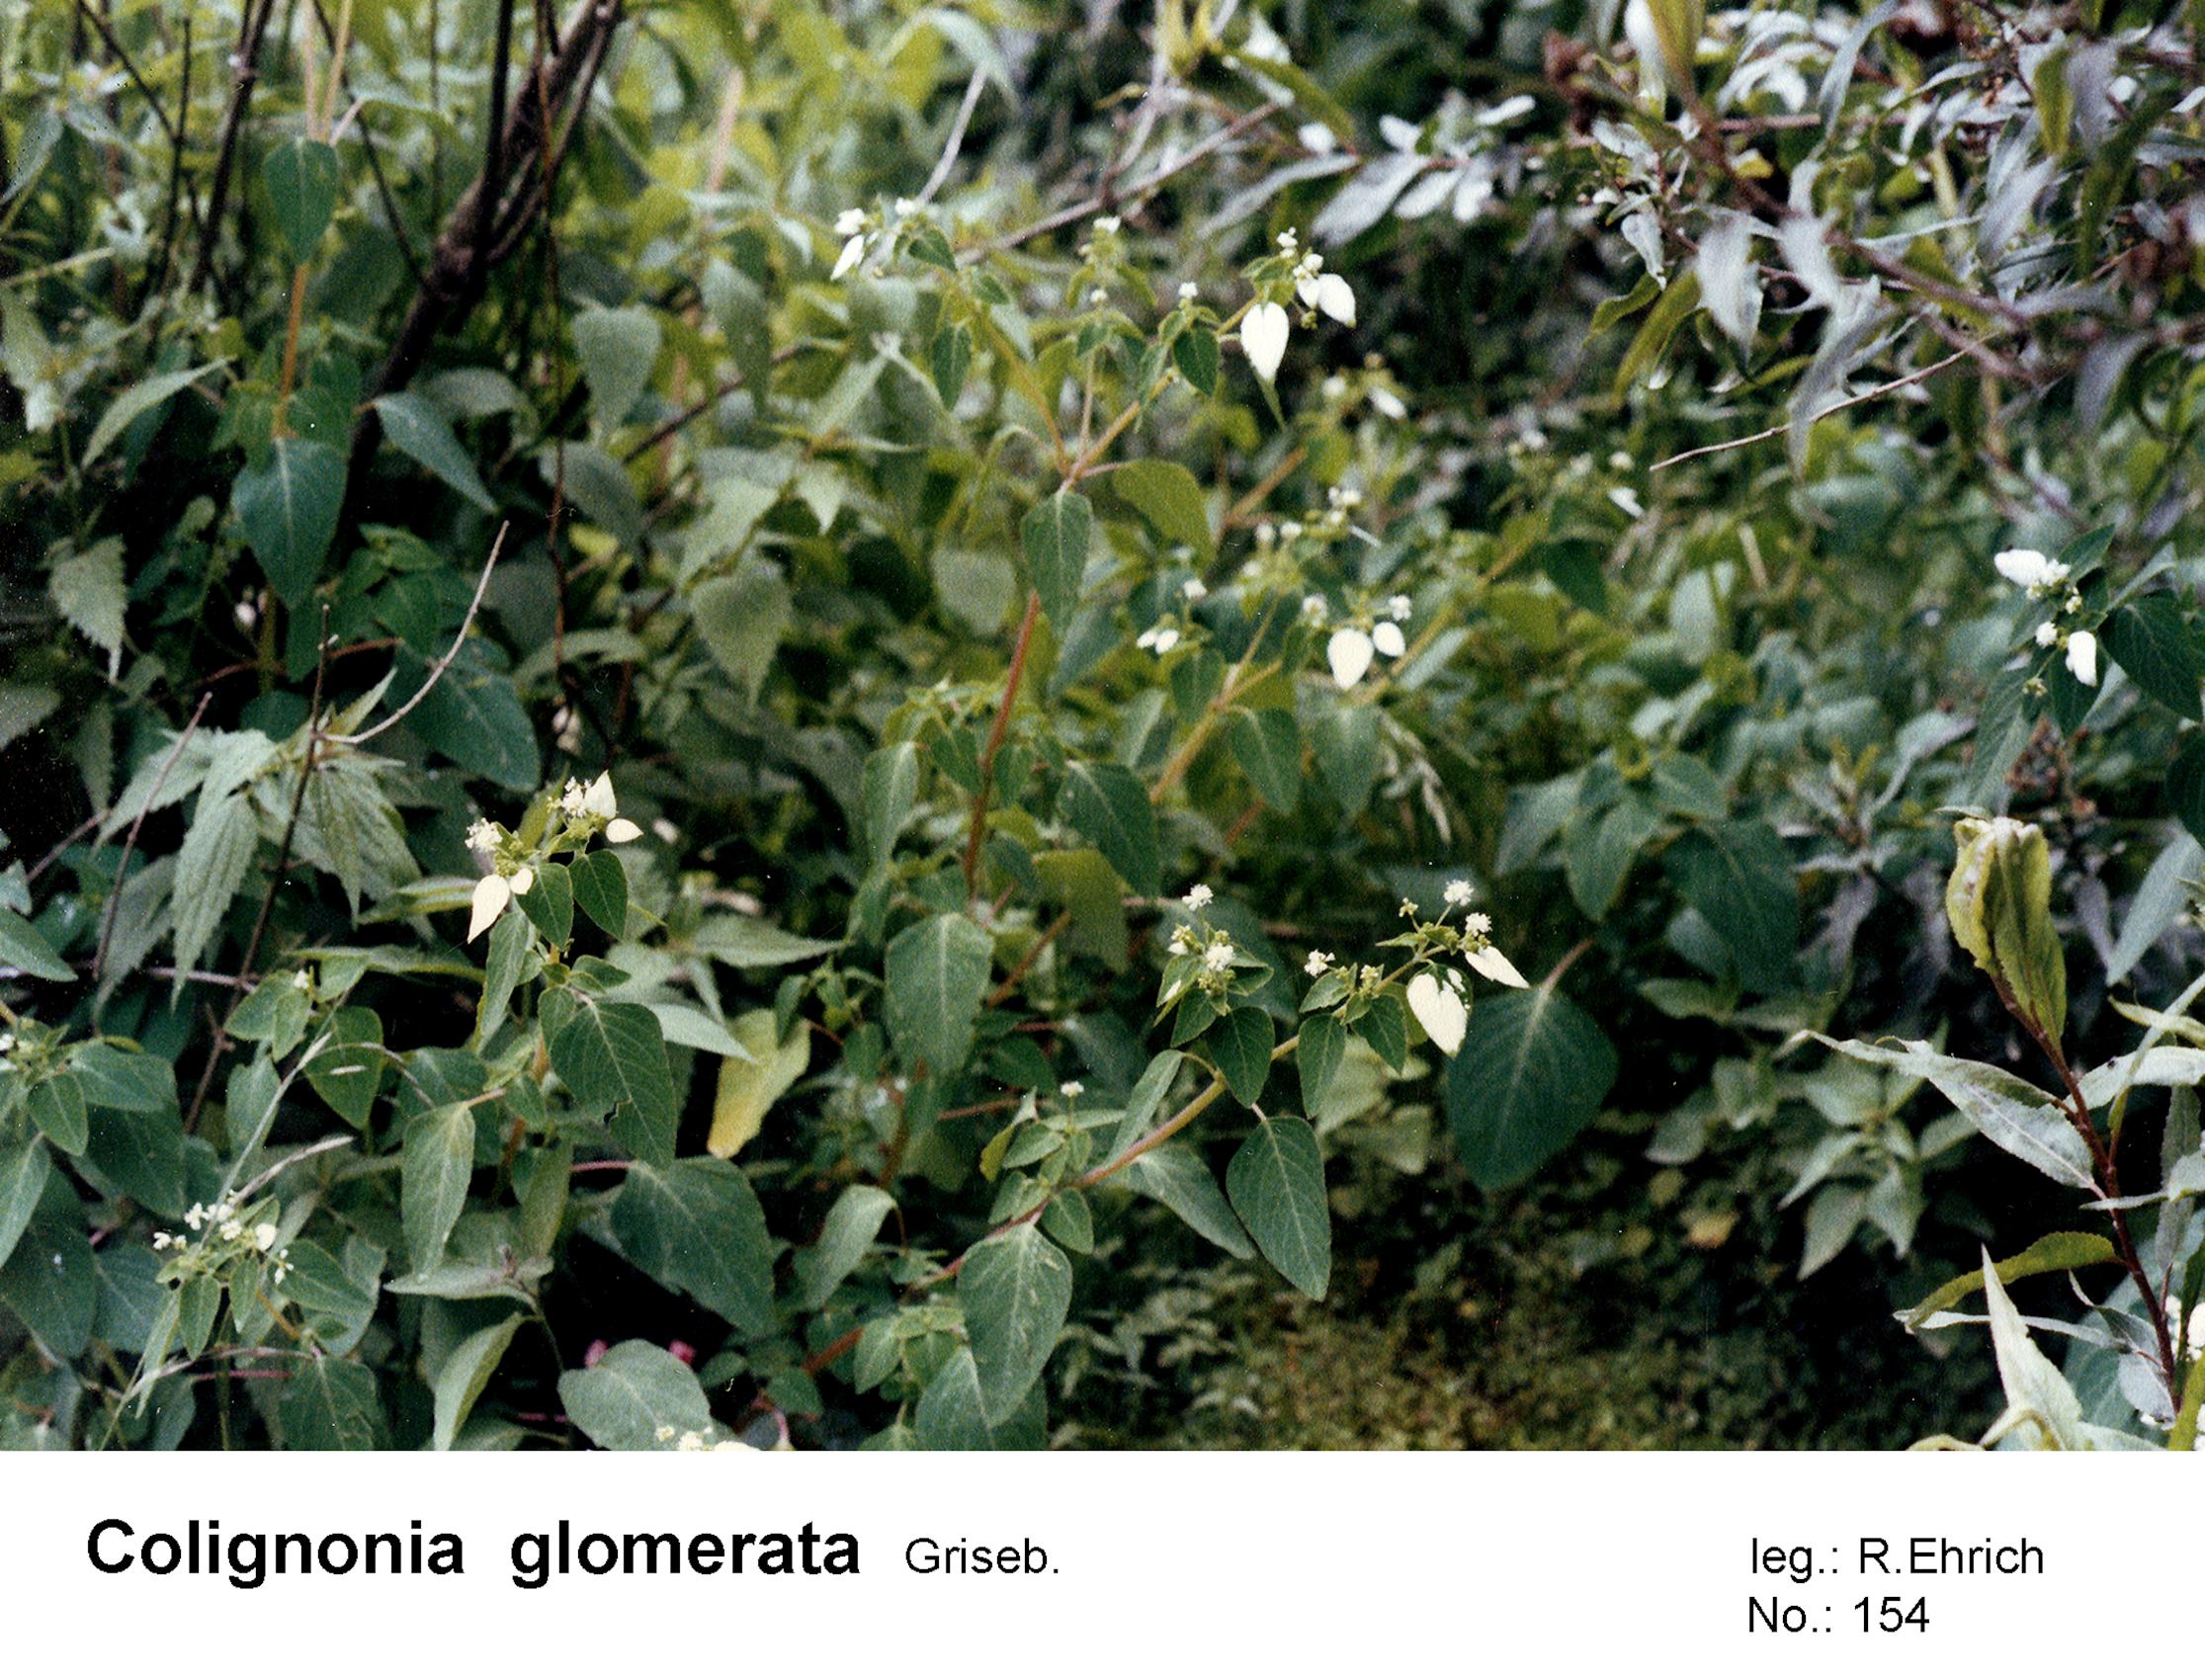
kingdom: Plantae
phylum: Tracheophyta
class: Magnoliopsida
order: Caryophyllales
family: Nyctaginaceae
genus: Colignonia
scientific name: Colignonia glomerata
